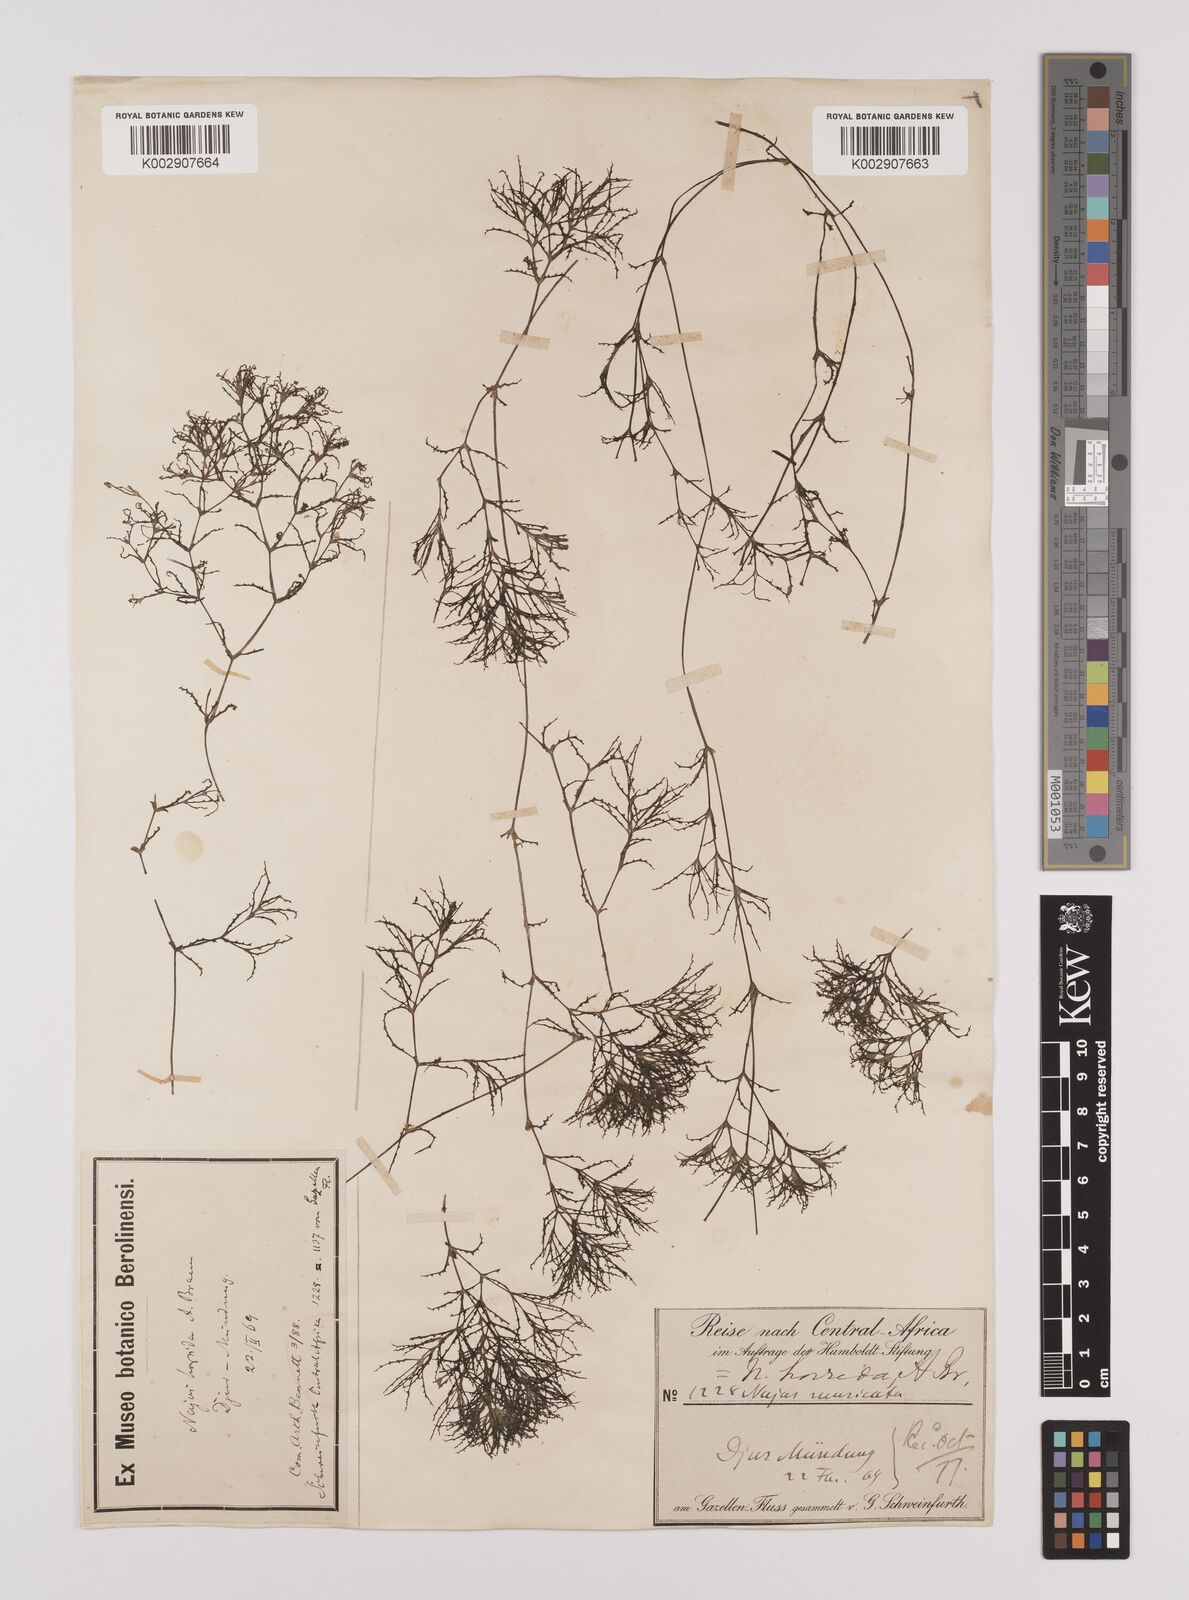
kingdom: Plantae
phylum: Tracheophyta
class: Liliopsida
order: Alismatales
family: Hydrocharitaceae
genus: Najas
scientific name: Najas pectinata
